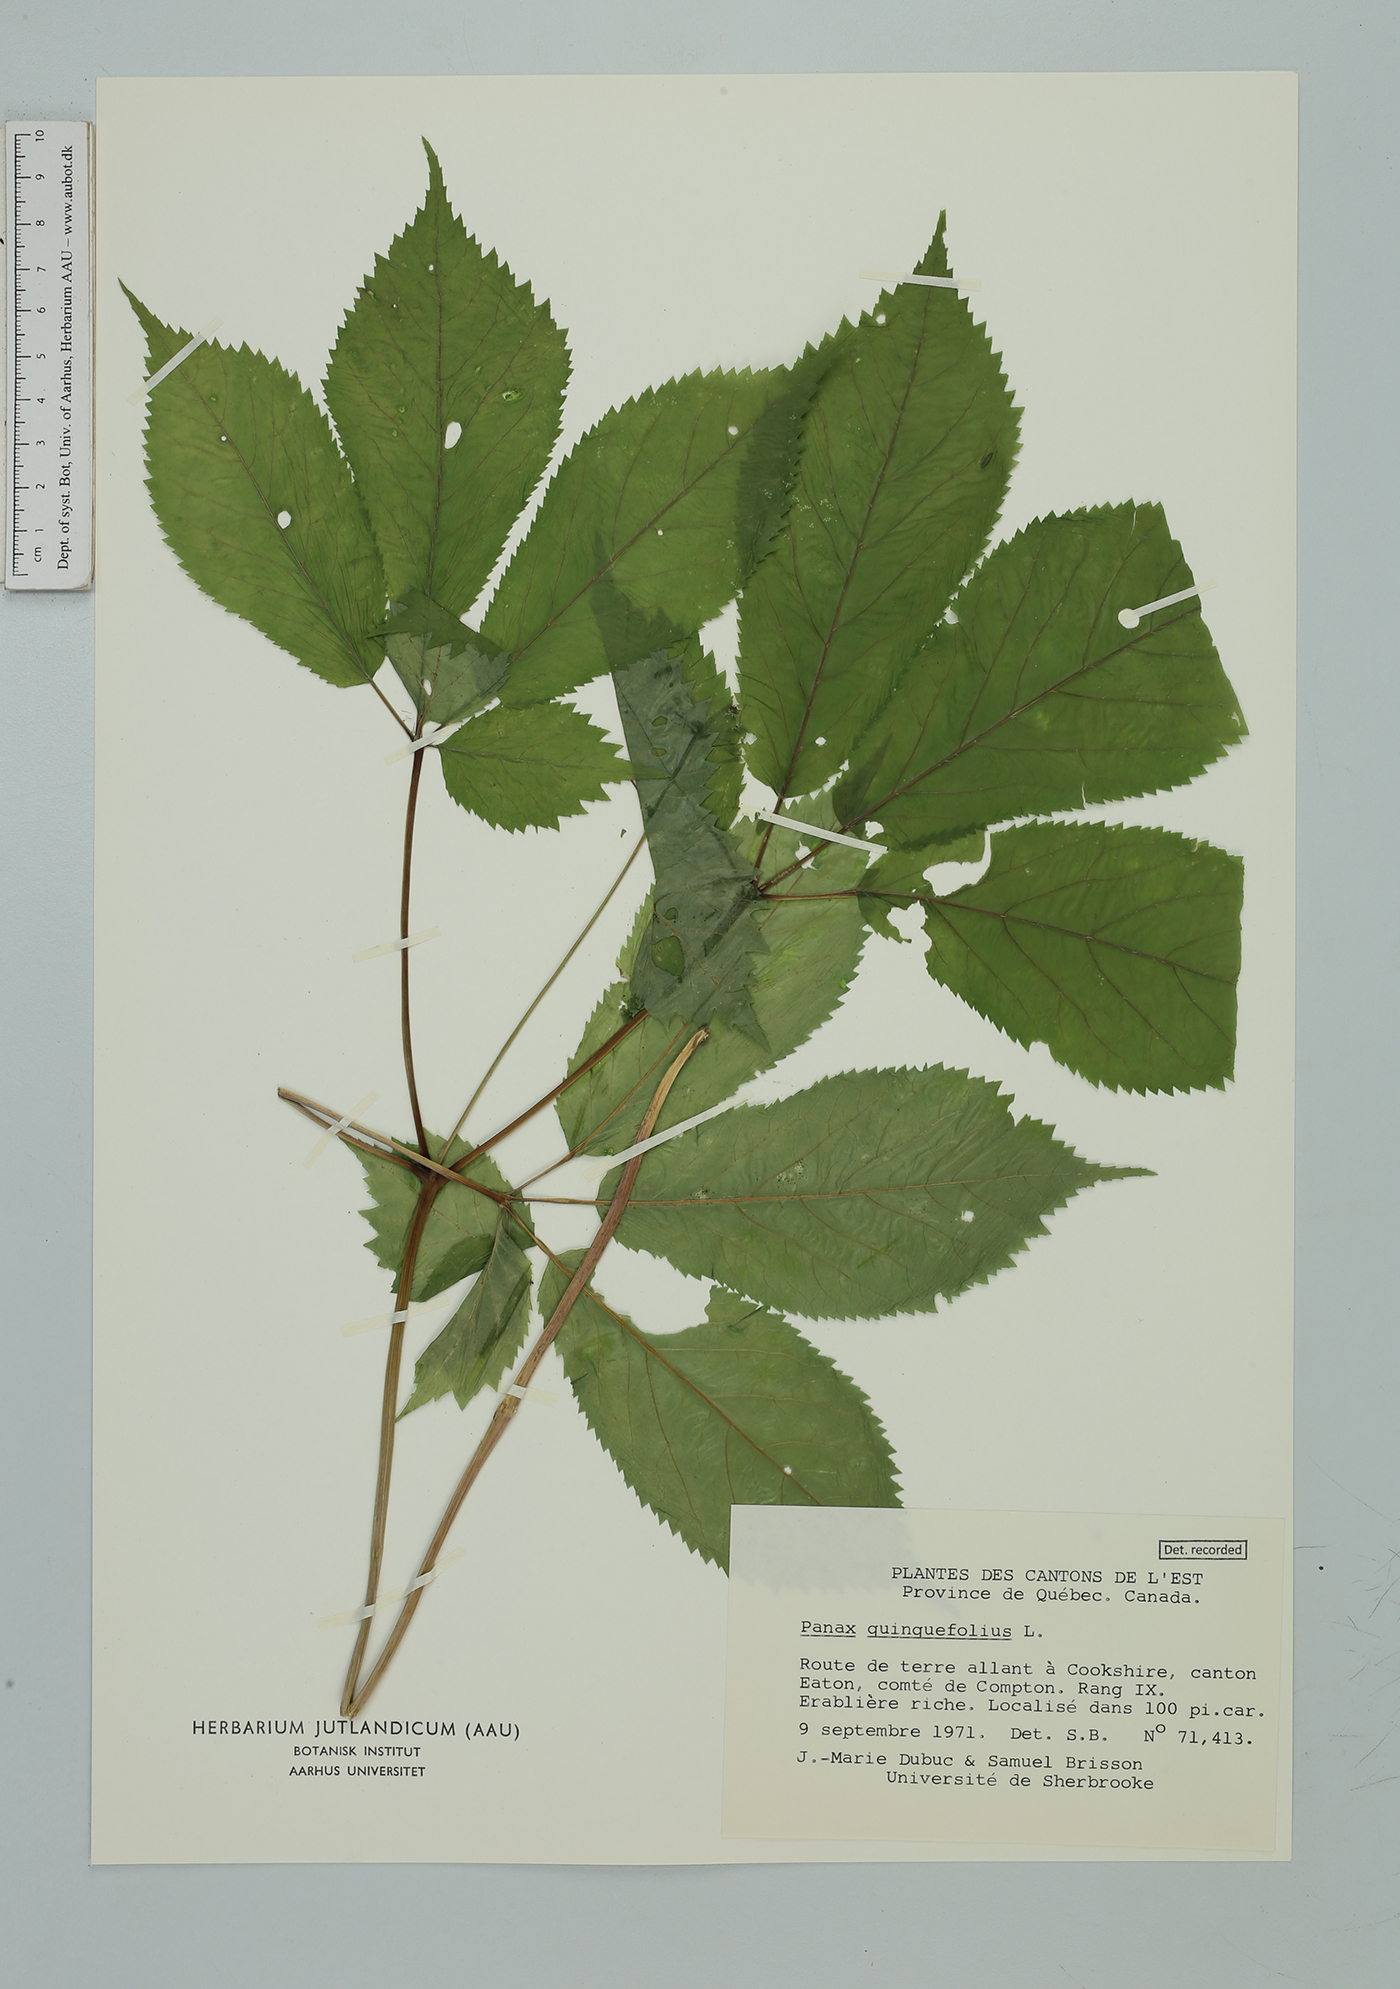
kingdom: Plantae
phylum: Tracheophyta
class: Magnoliopsida
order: Apiales
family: Araliaceae
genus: Panax
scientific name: Panax quinquefolius
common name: American ginseng
